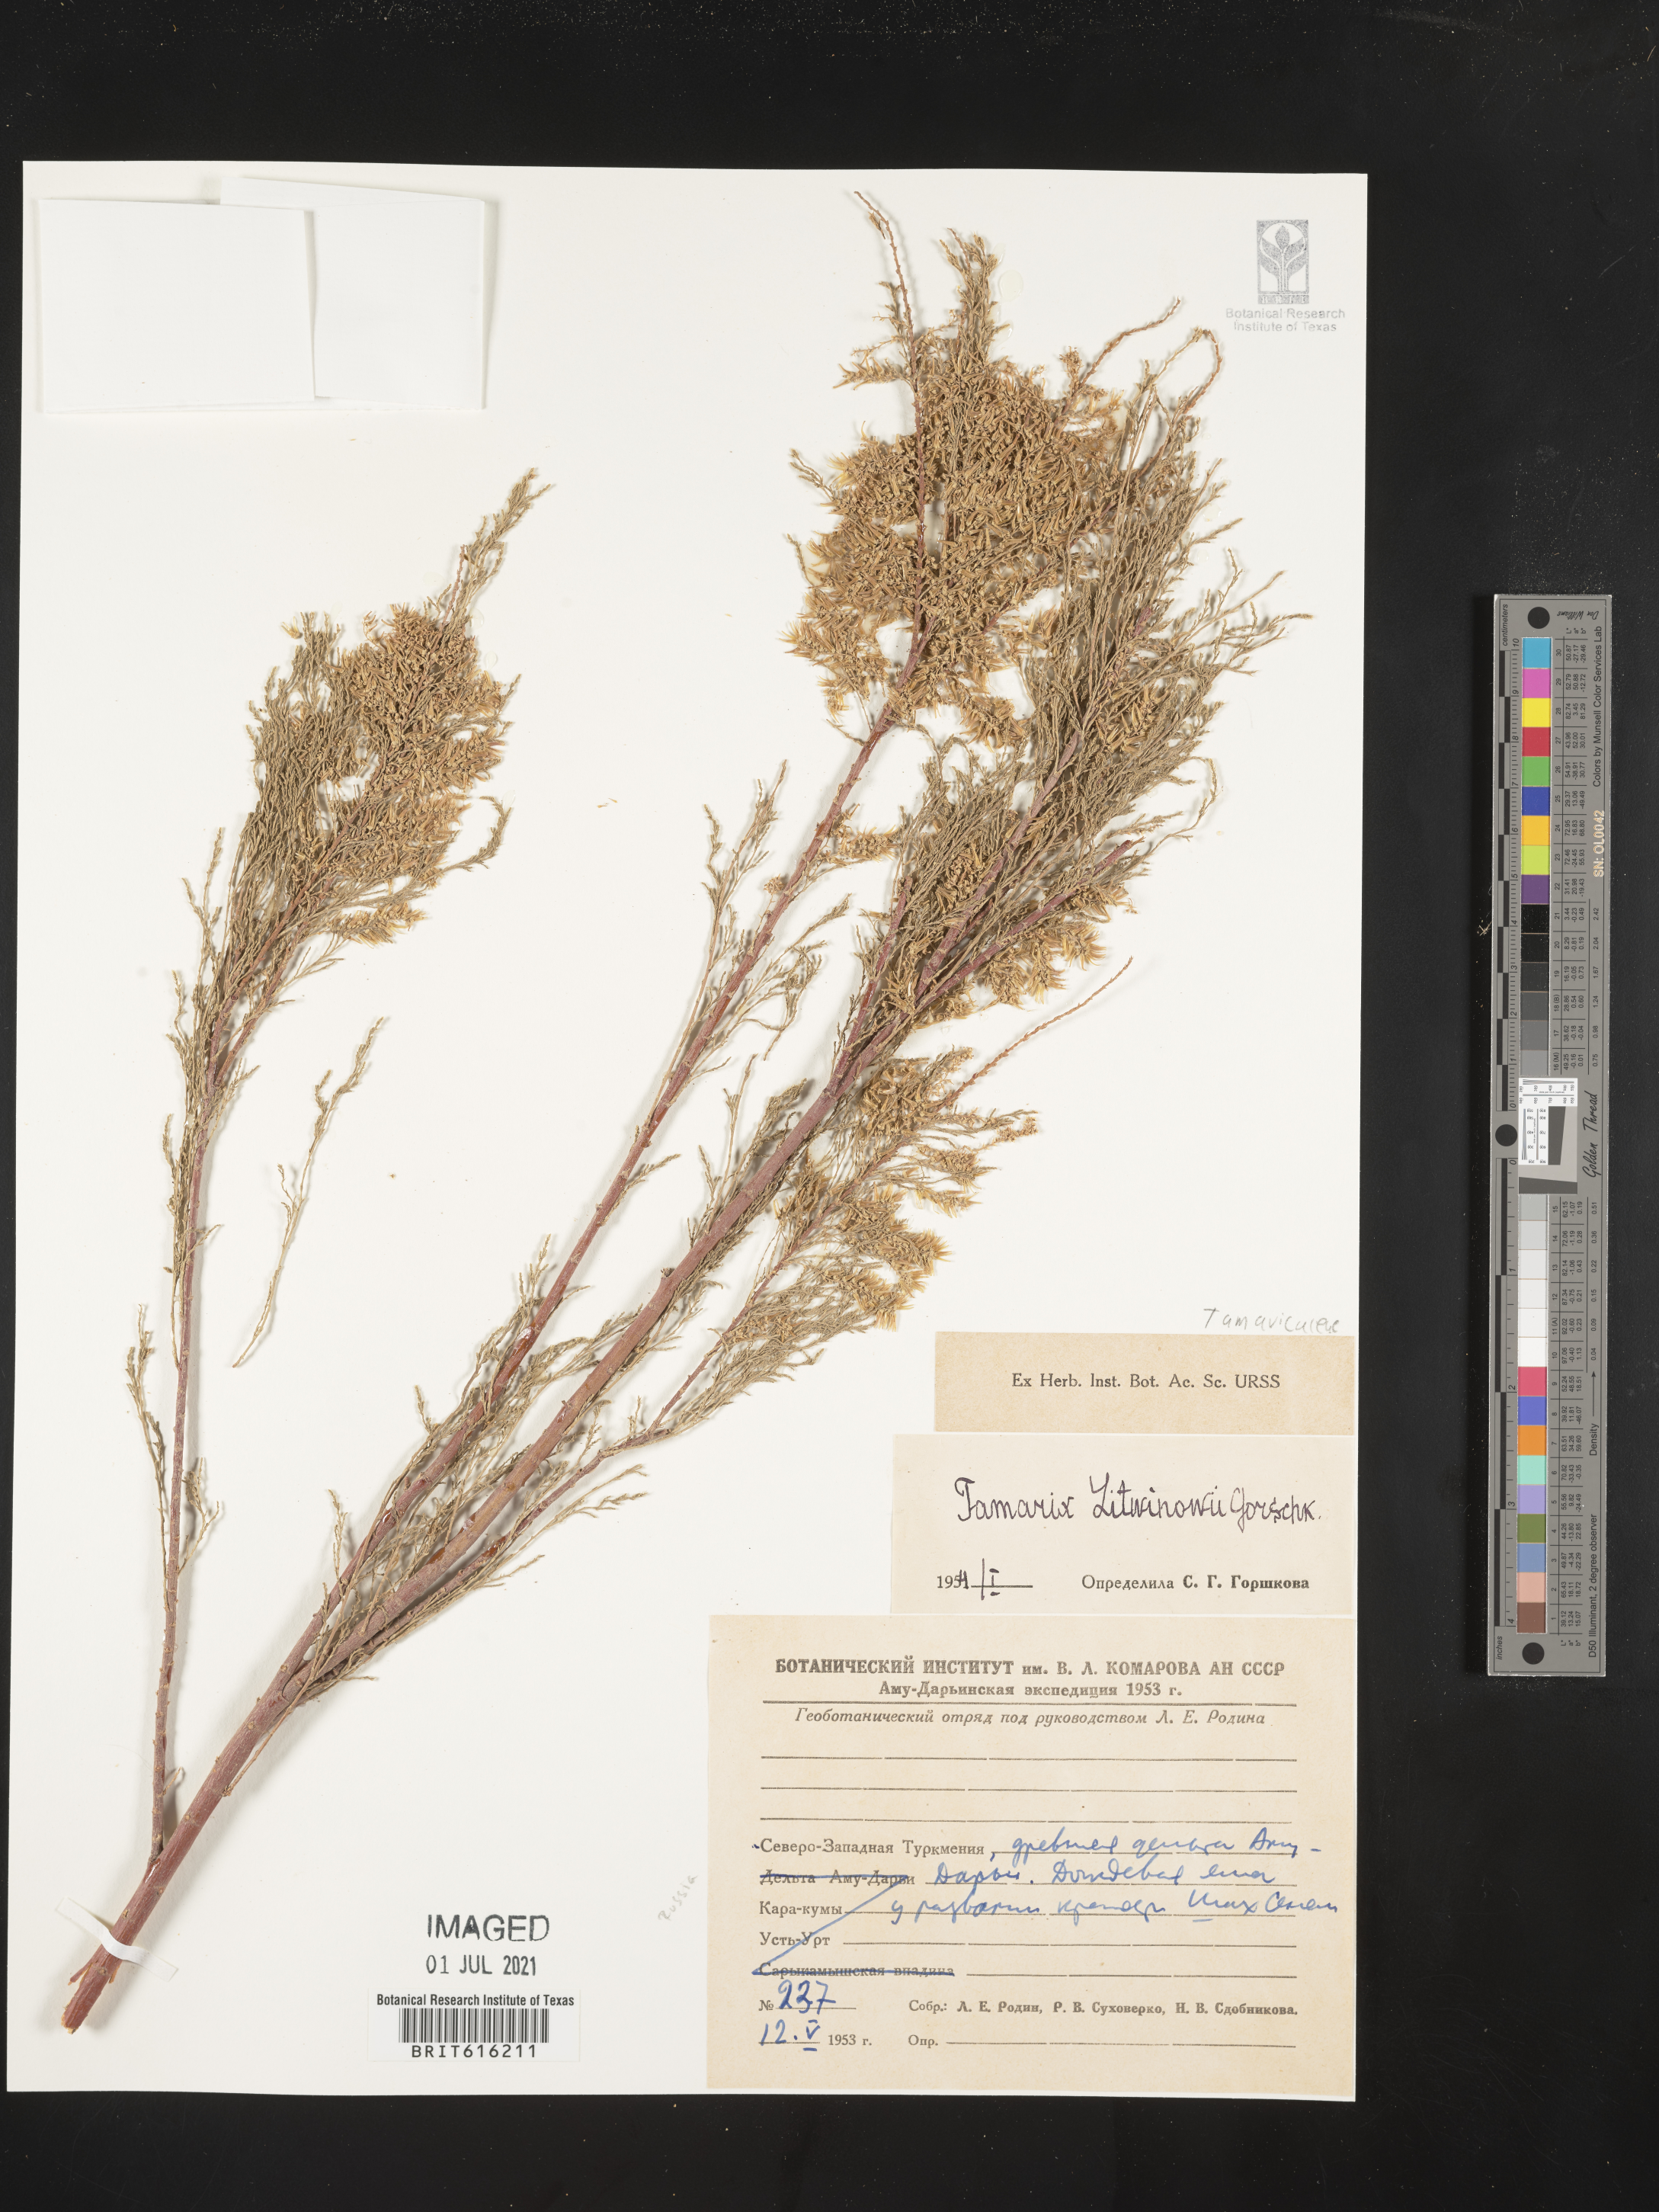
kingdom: Plantae
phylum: Tracheophyta
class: Magnoliopsida
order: Caryophyllales
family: Tamaricaceae
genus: Tamarix
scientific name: Tamarix litwinowii
